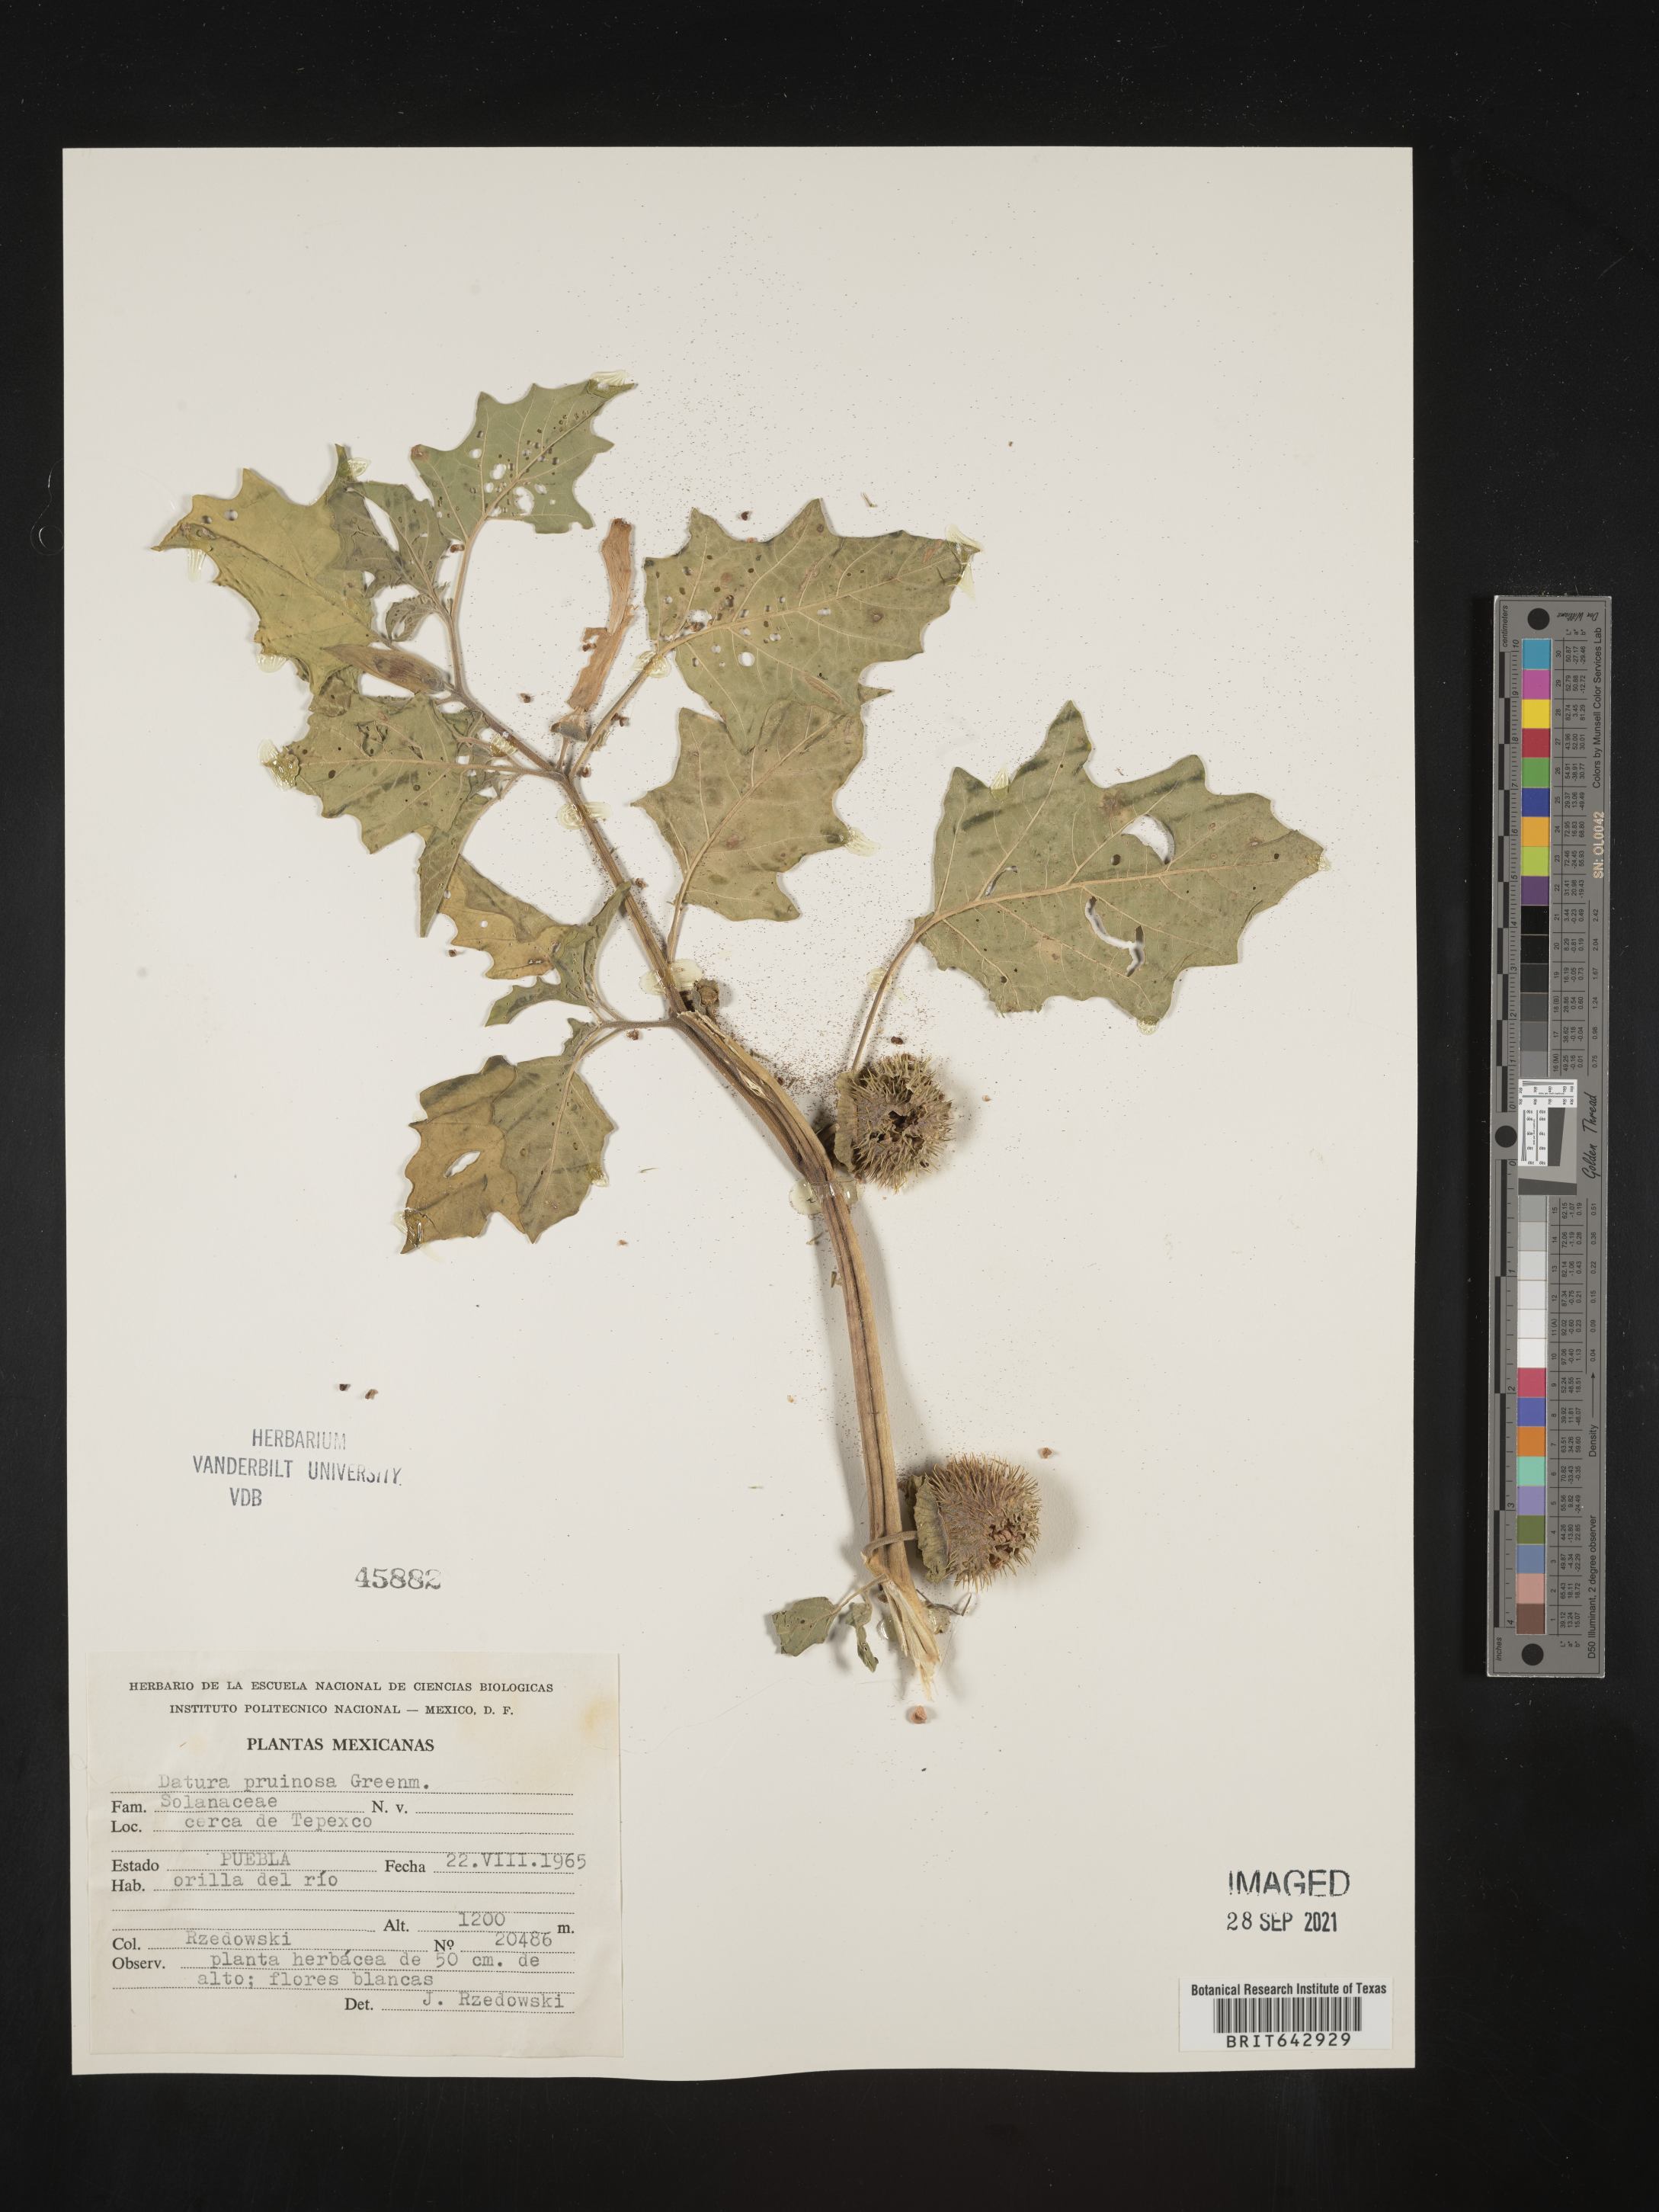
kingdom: Plantae
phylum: Tracheophyta
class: Magnoliopsida
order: Solanales
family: Solanaceae
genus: Datura
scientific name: Datura
